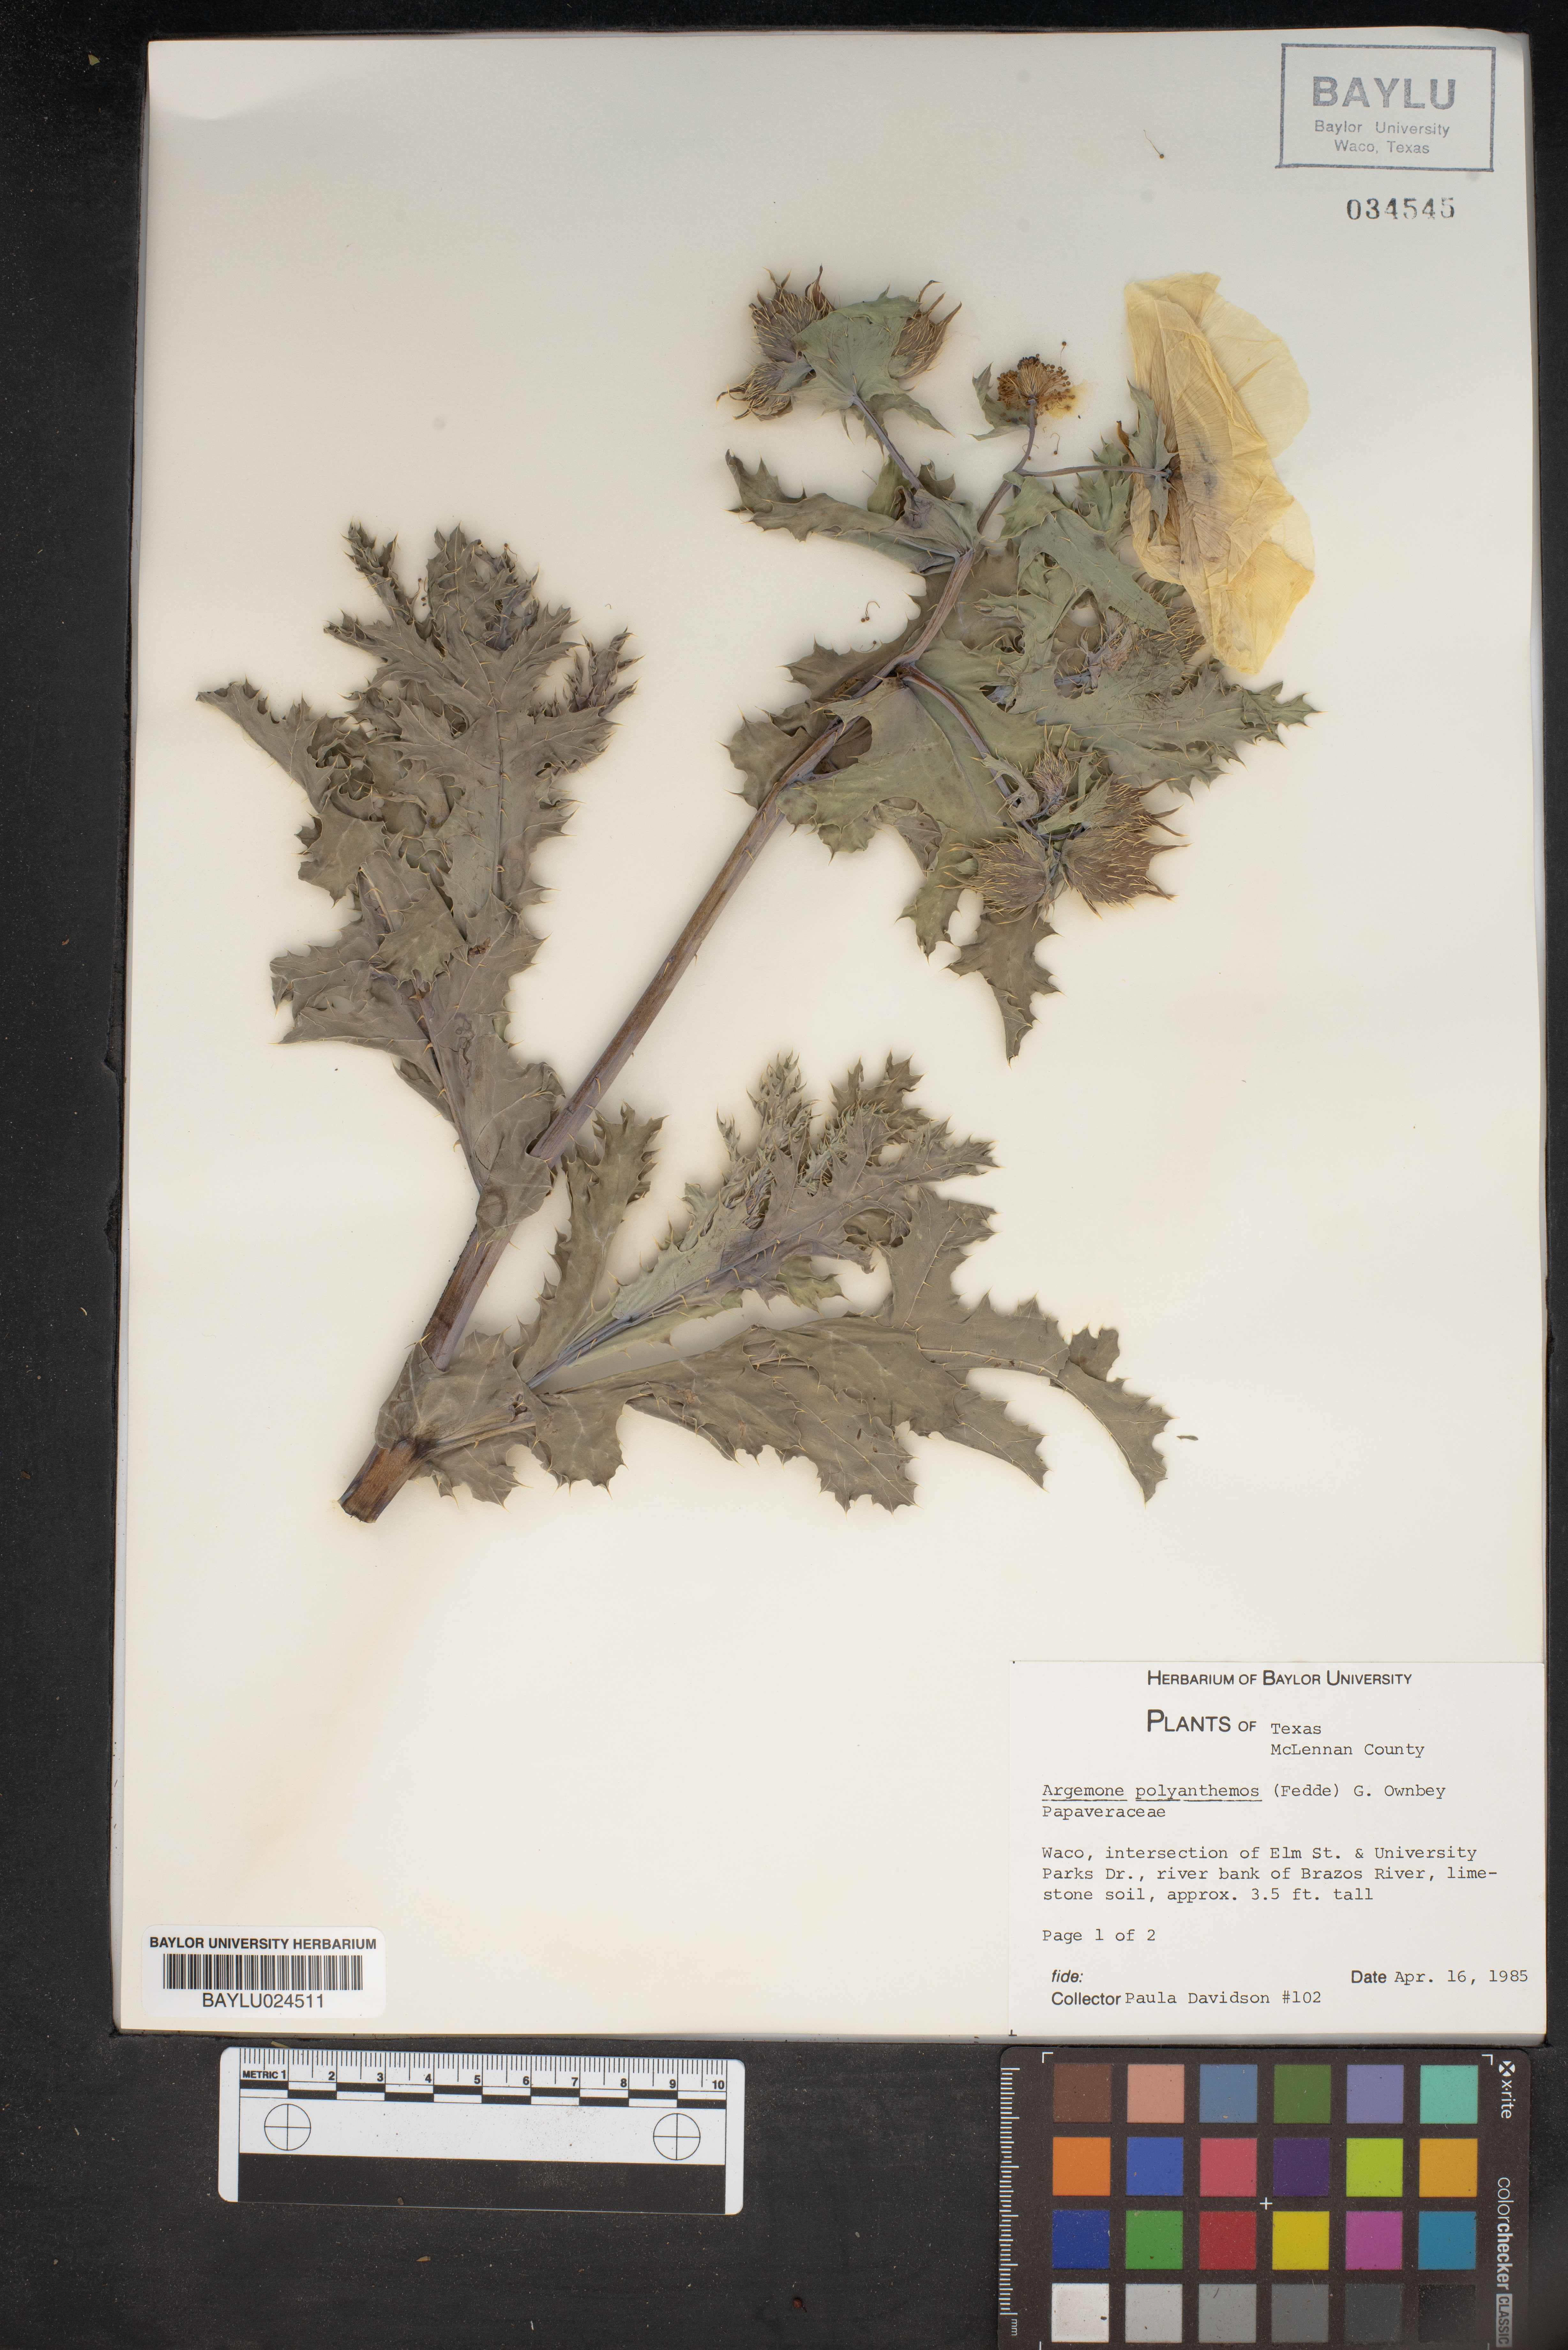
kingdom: Plantae
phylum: Tracheophyta
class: Magnoliopsida
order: Ranunculales
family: Papaveraceae
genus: Argemone
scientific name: Argemone polyanthemos
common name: Plains prickly-poppy
